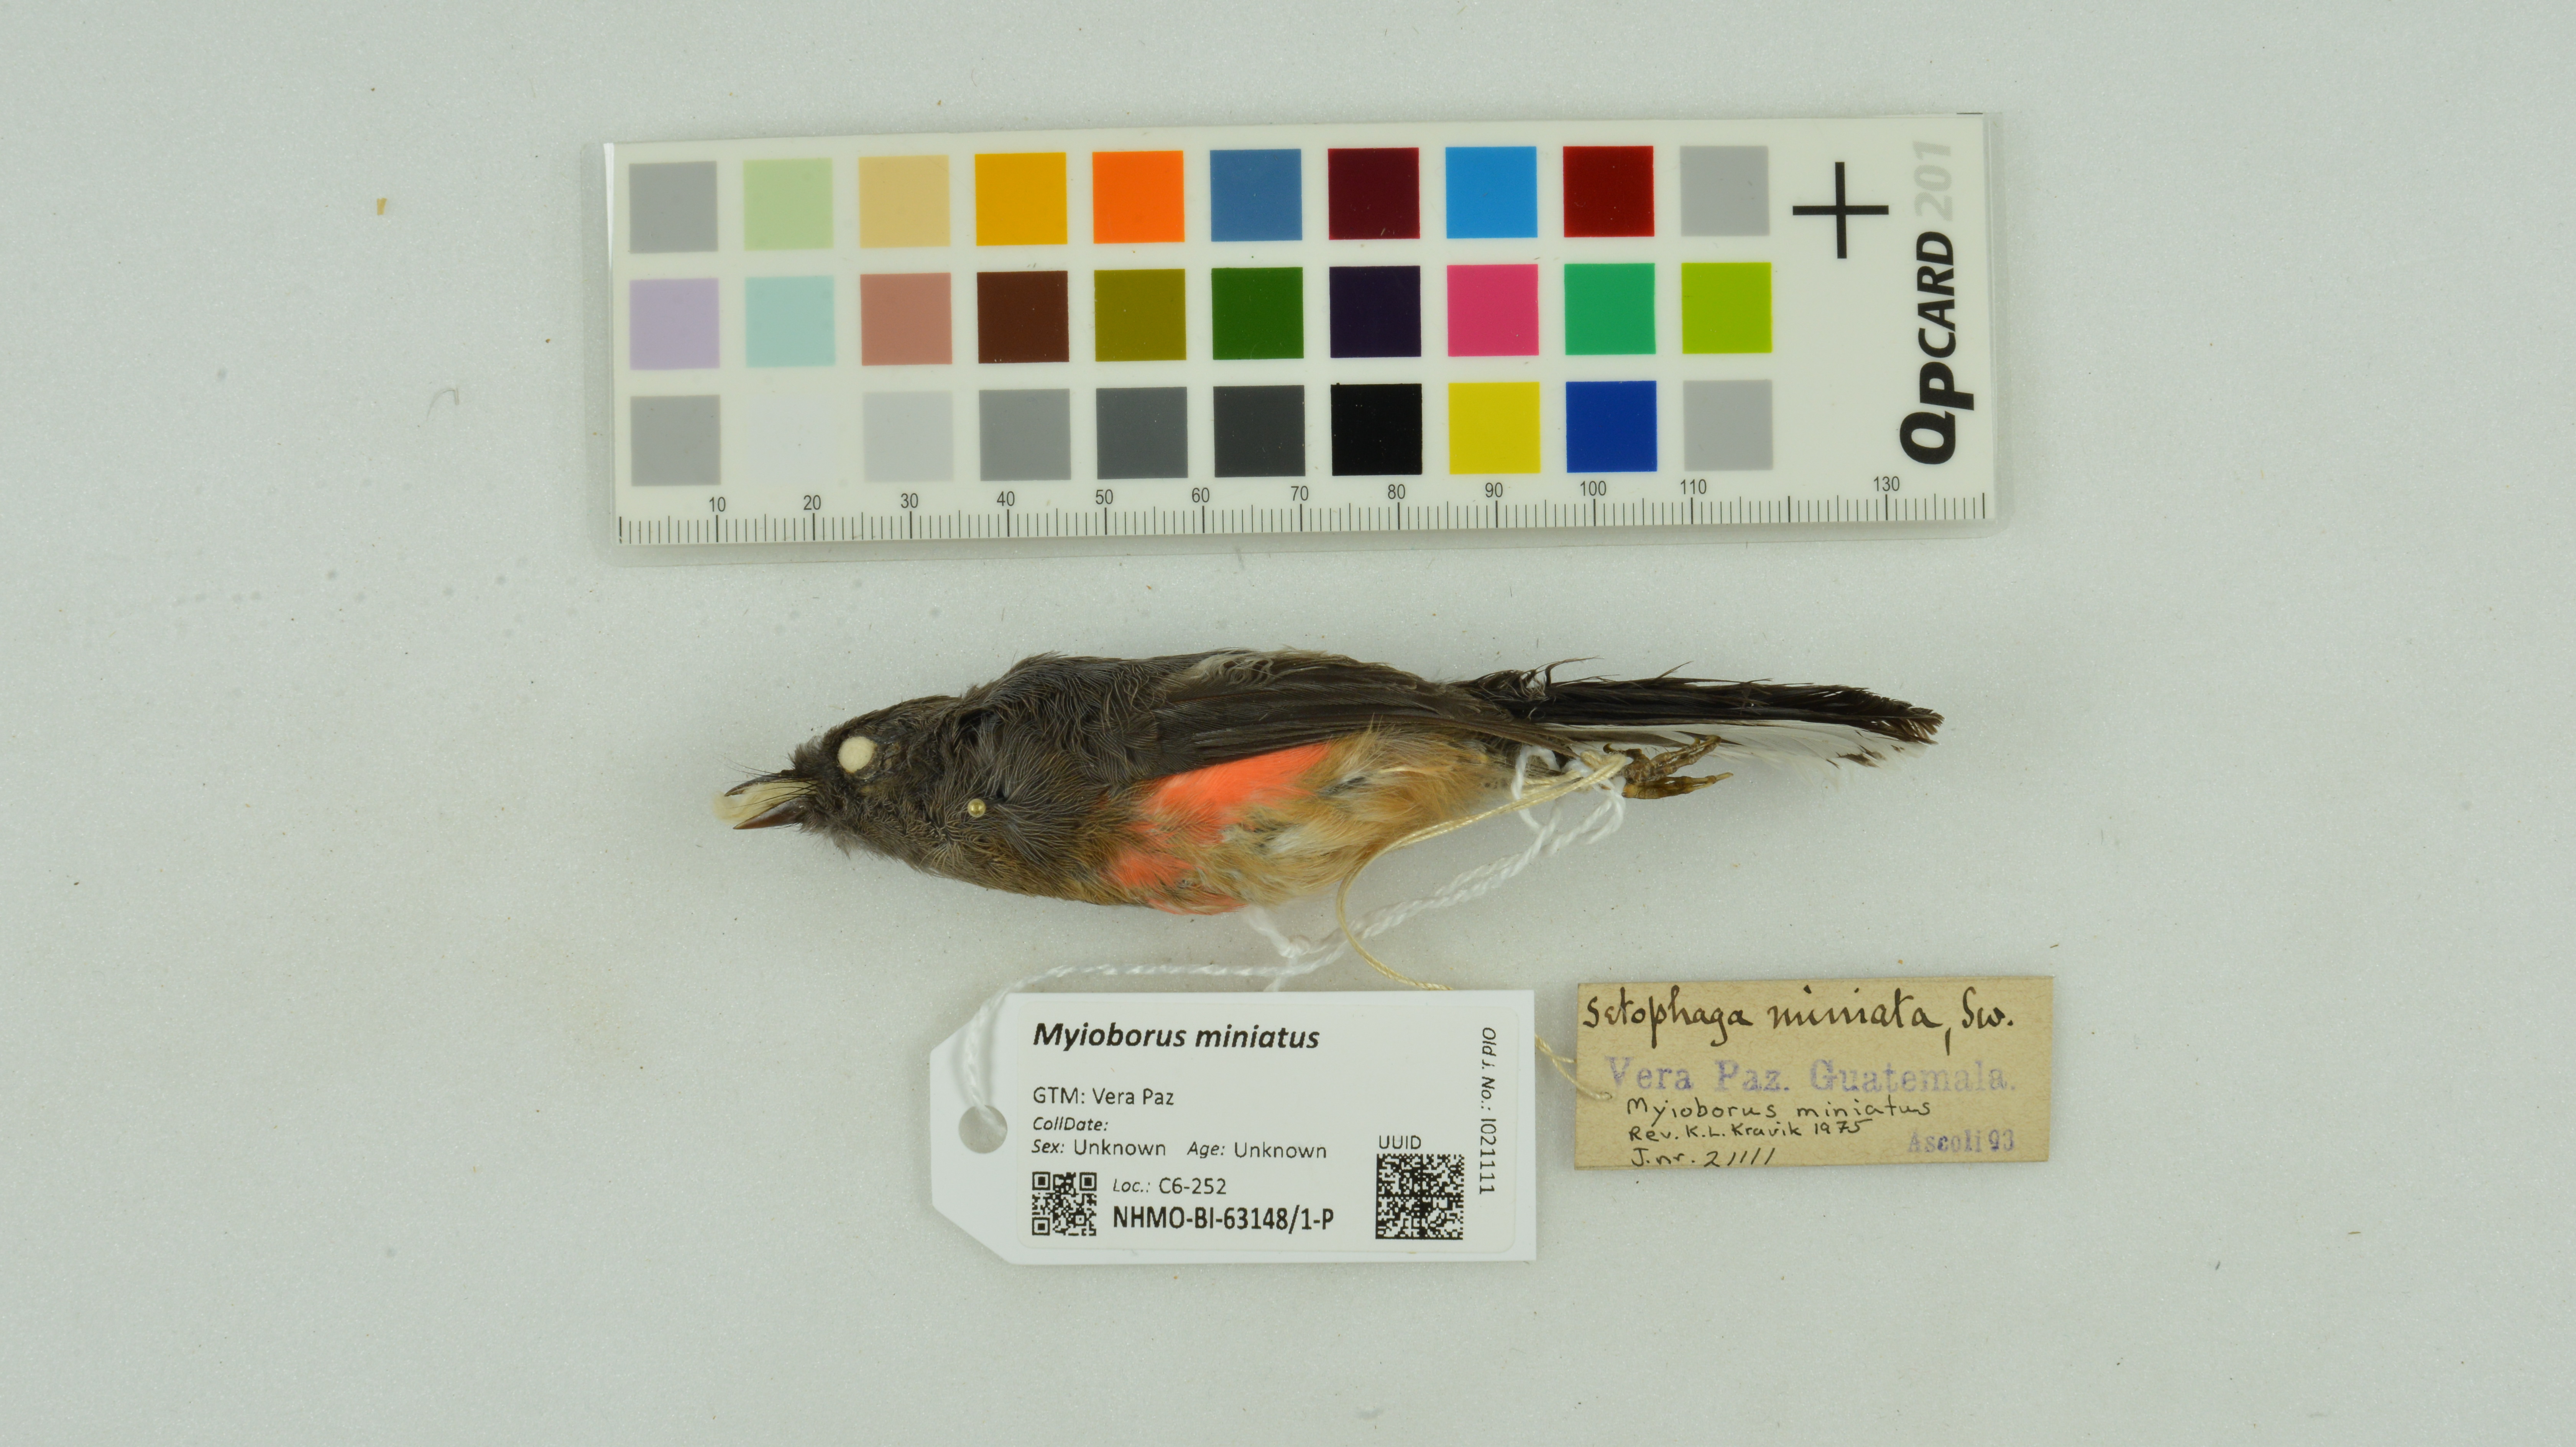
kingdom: Animalia
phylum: Chordata
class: Aves
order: Passeriformes
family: Parulidae
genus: Myioborus
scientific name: Myioborus miniatus
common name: Slate-throated redstart
